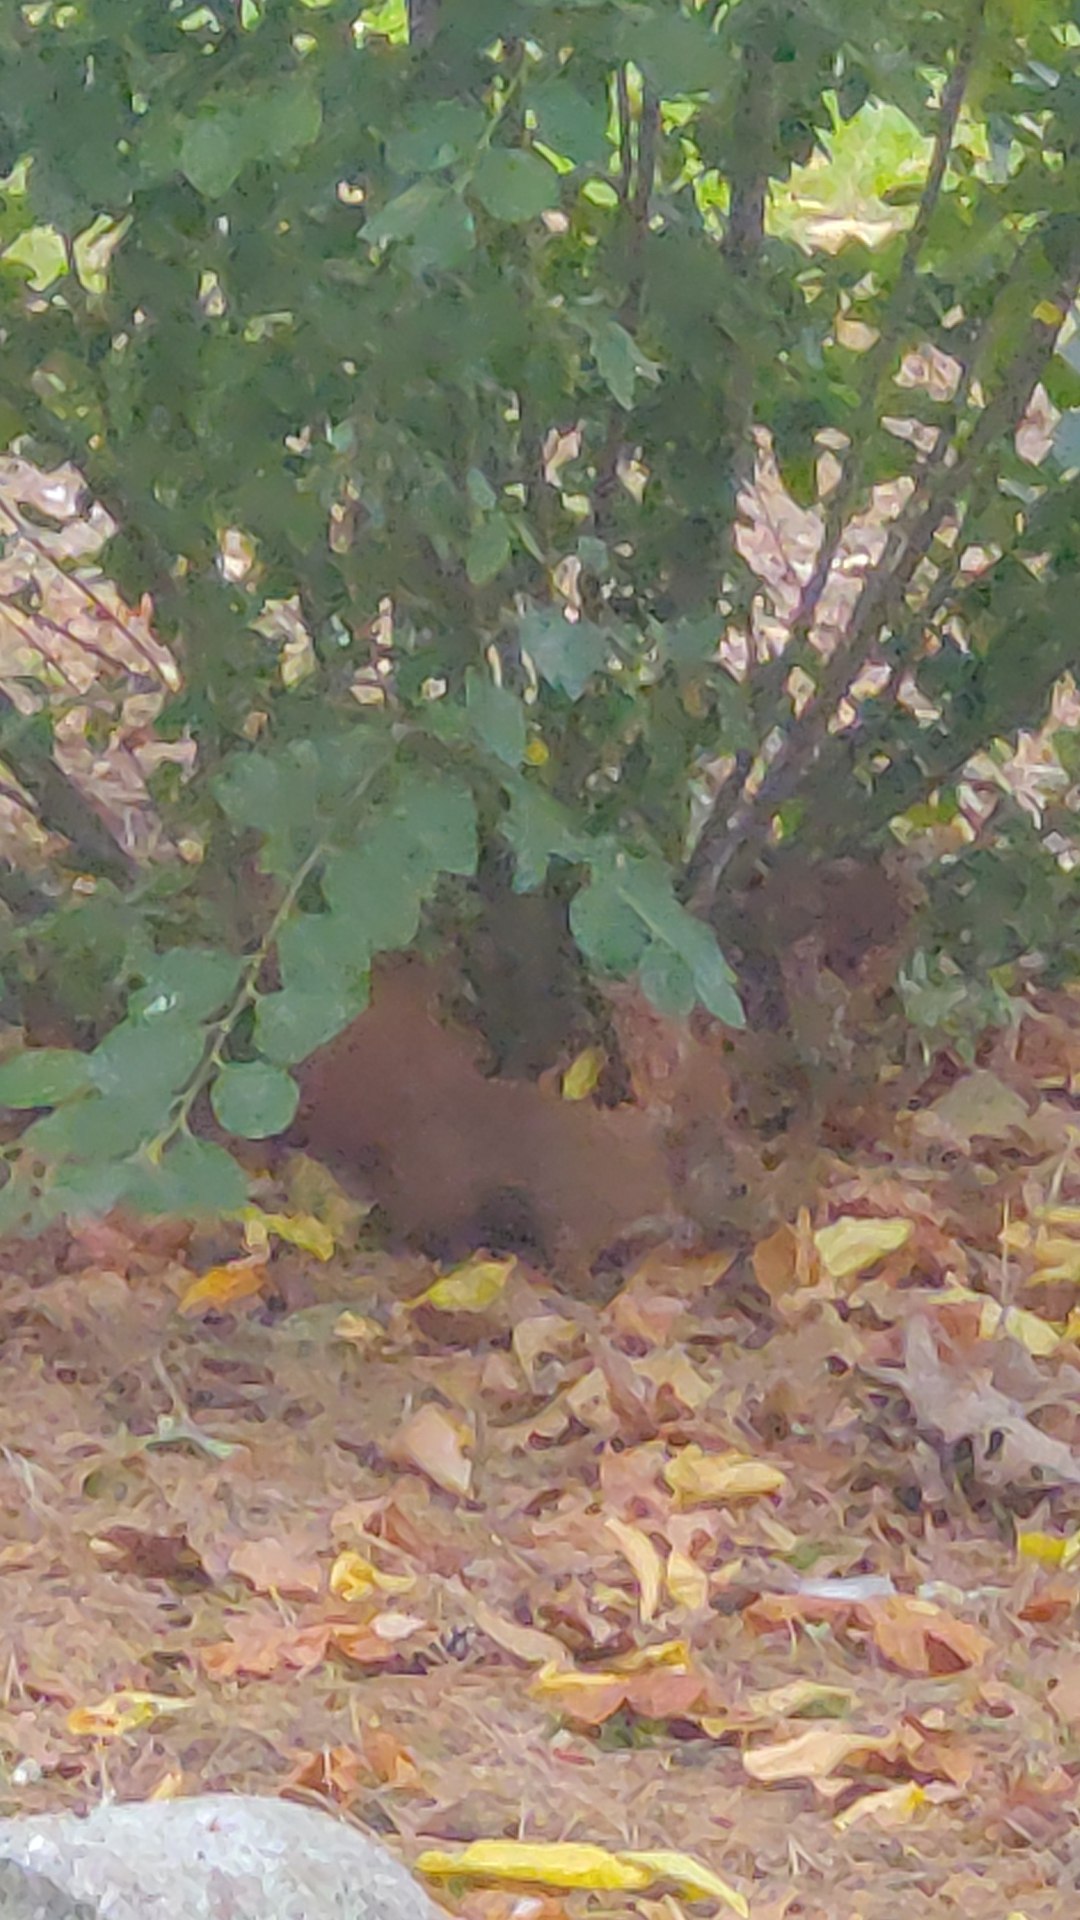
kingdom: Animalia
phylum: Chordata
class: Mammalia
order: Rodentia
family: Sciuridae
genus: Sciurus
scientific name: Sciurus vulgaris
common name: Egern
